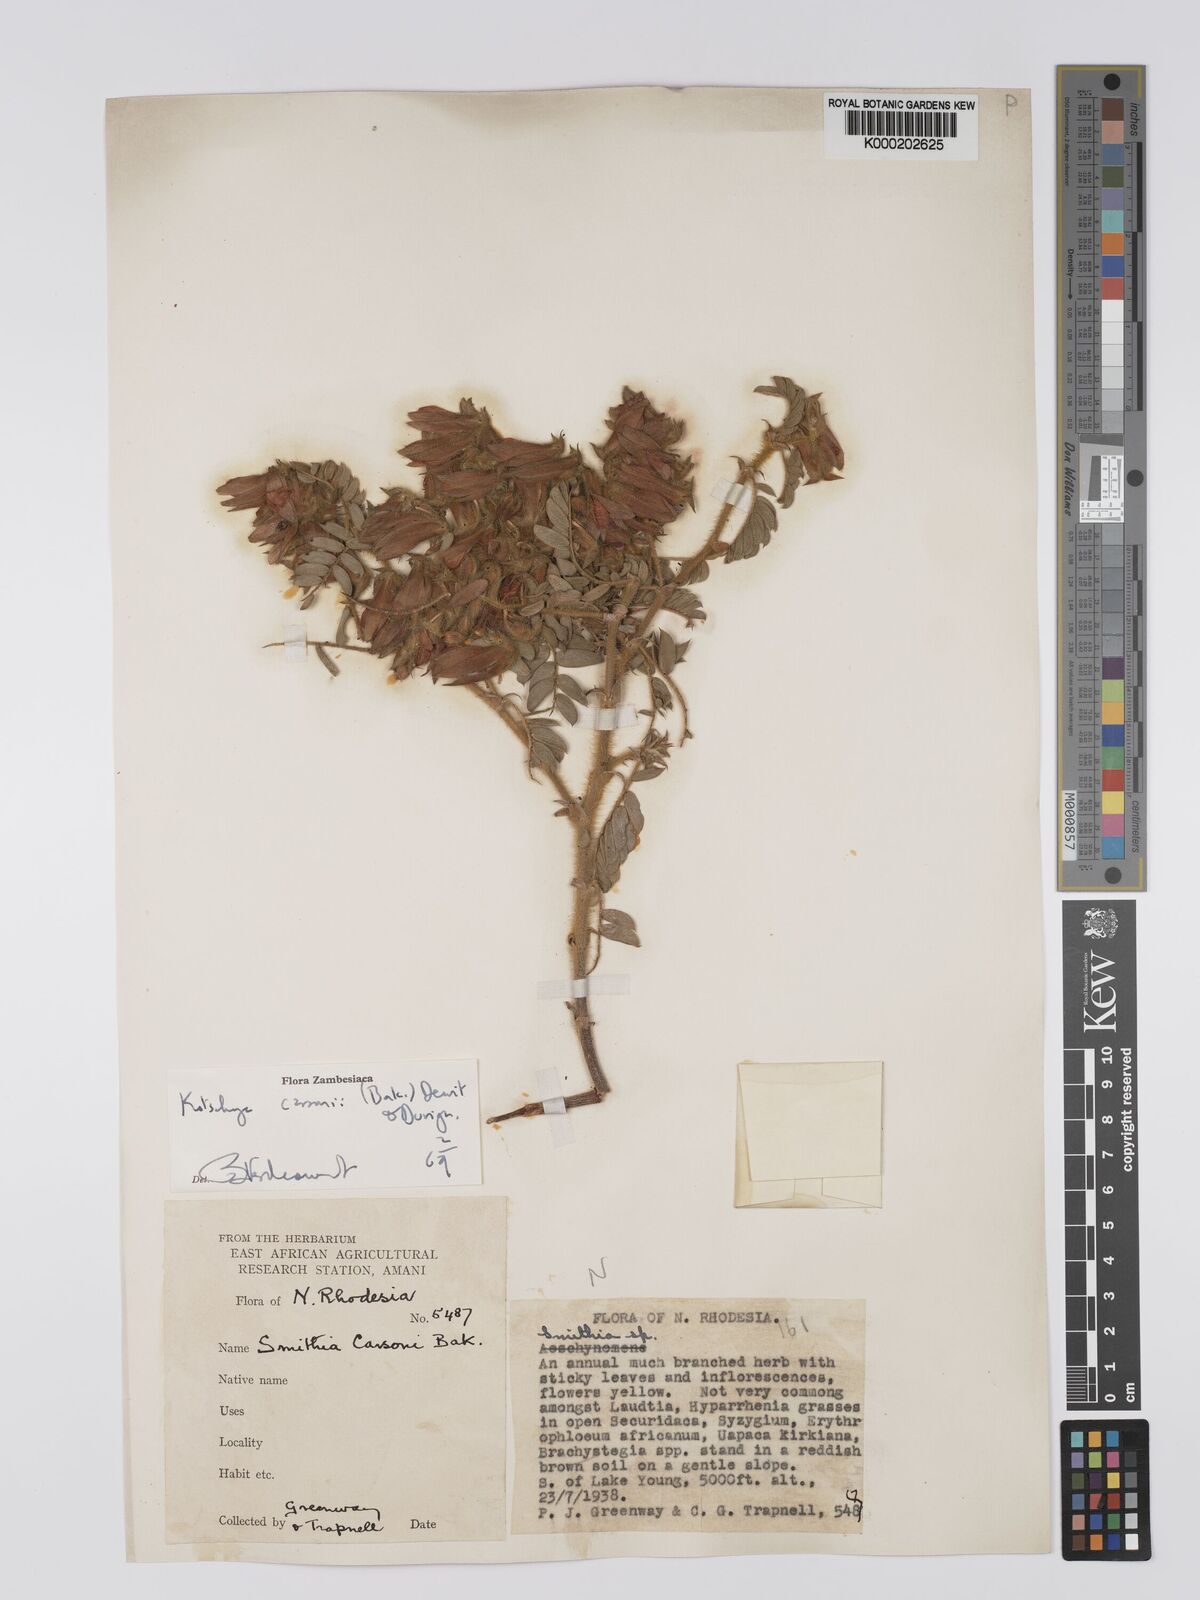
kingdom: Plantae
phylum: Tracheophyta
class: Magnoliopsida
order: Fabales
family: Fabaceae
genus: Kotschya
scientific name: Kotschya carsonii
